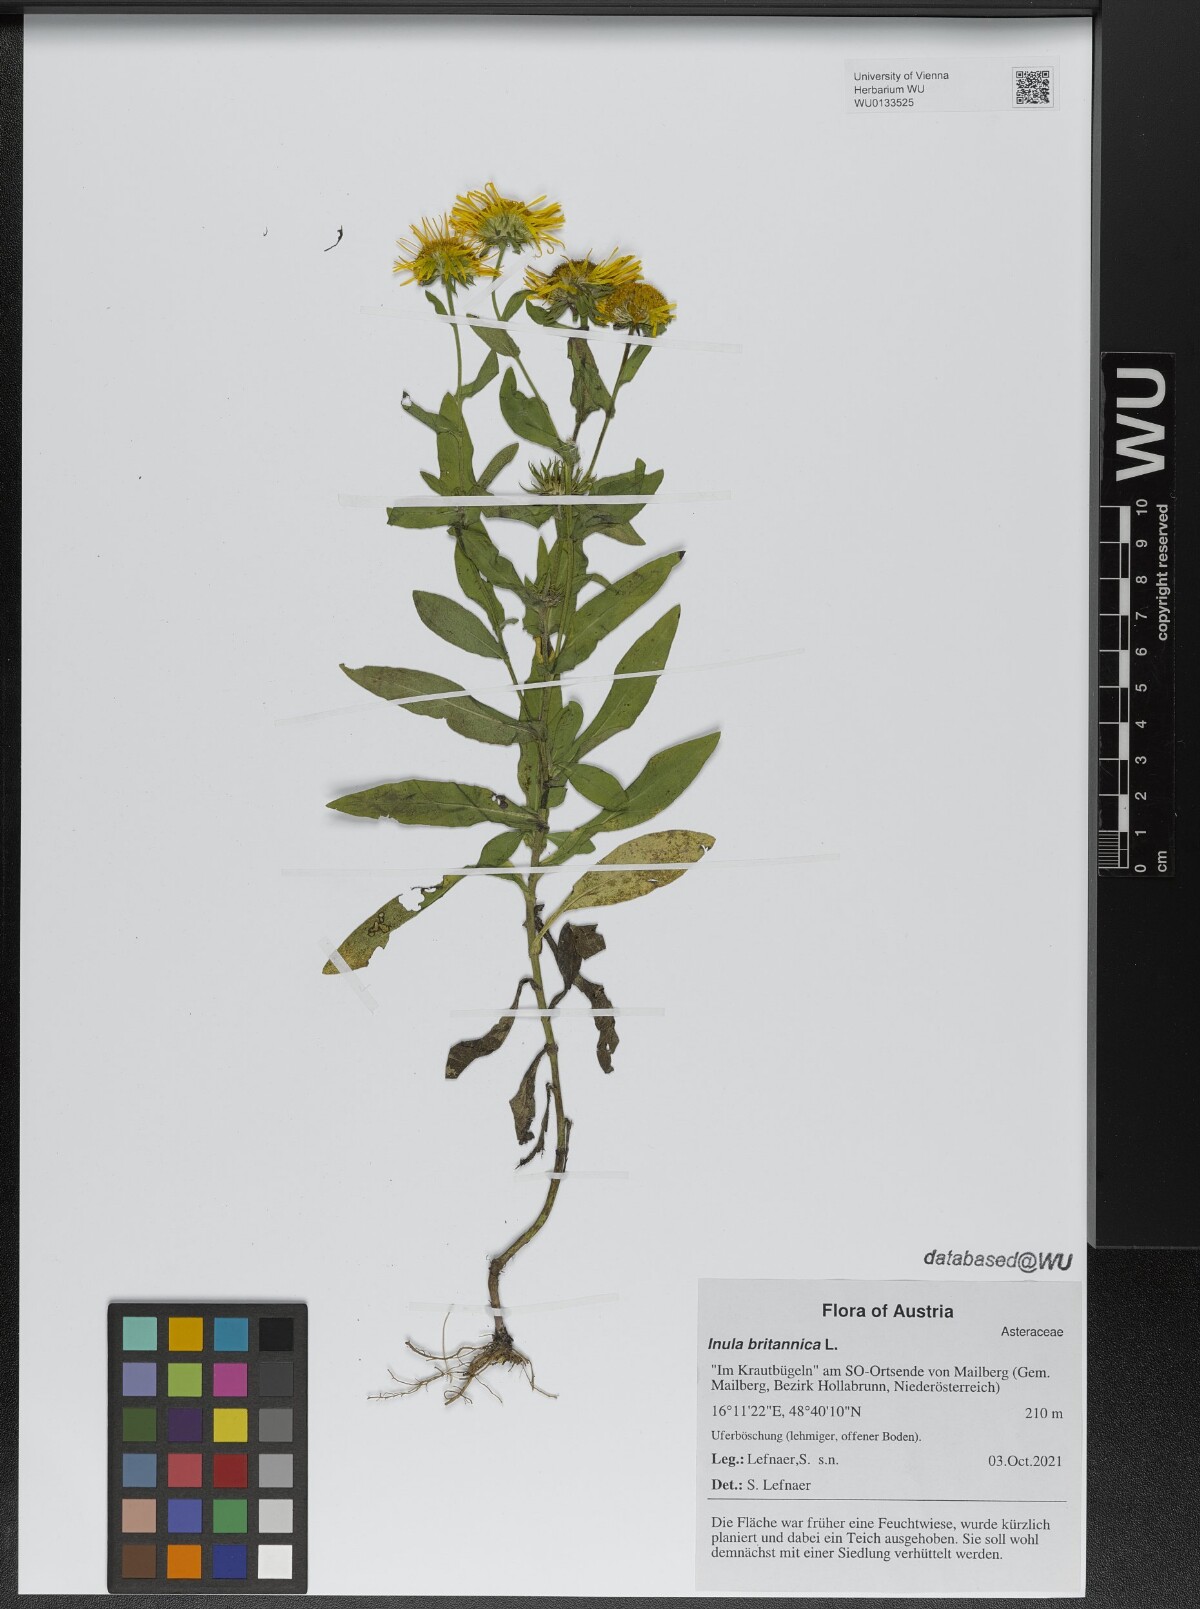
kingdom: Plantae
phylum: Tracheophyta
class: Magnoliopsida
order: Asterales
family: Asteraceae
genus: Pentanema
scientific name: Pentanema britannicum
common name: British elecampane
